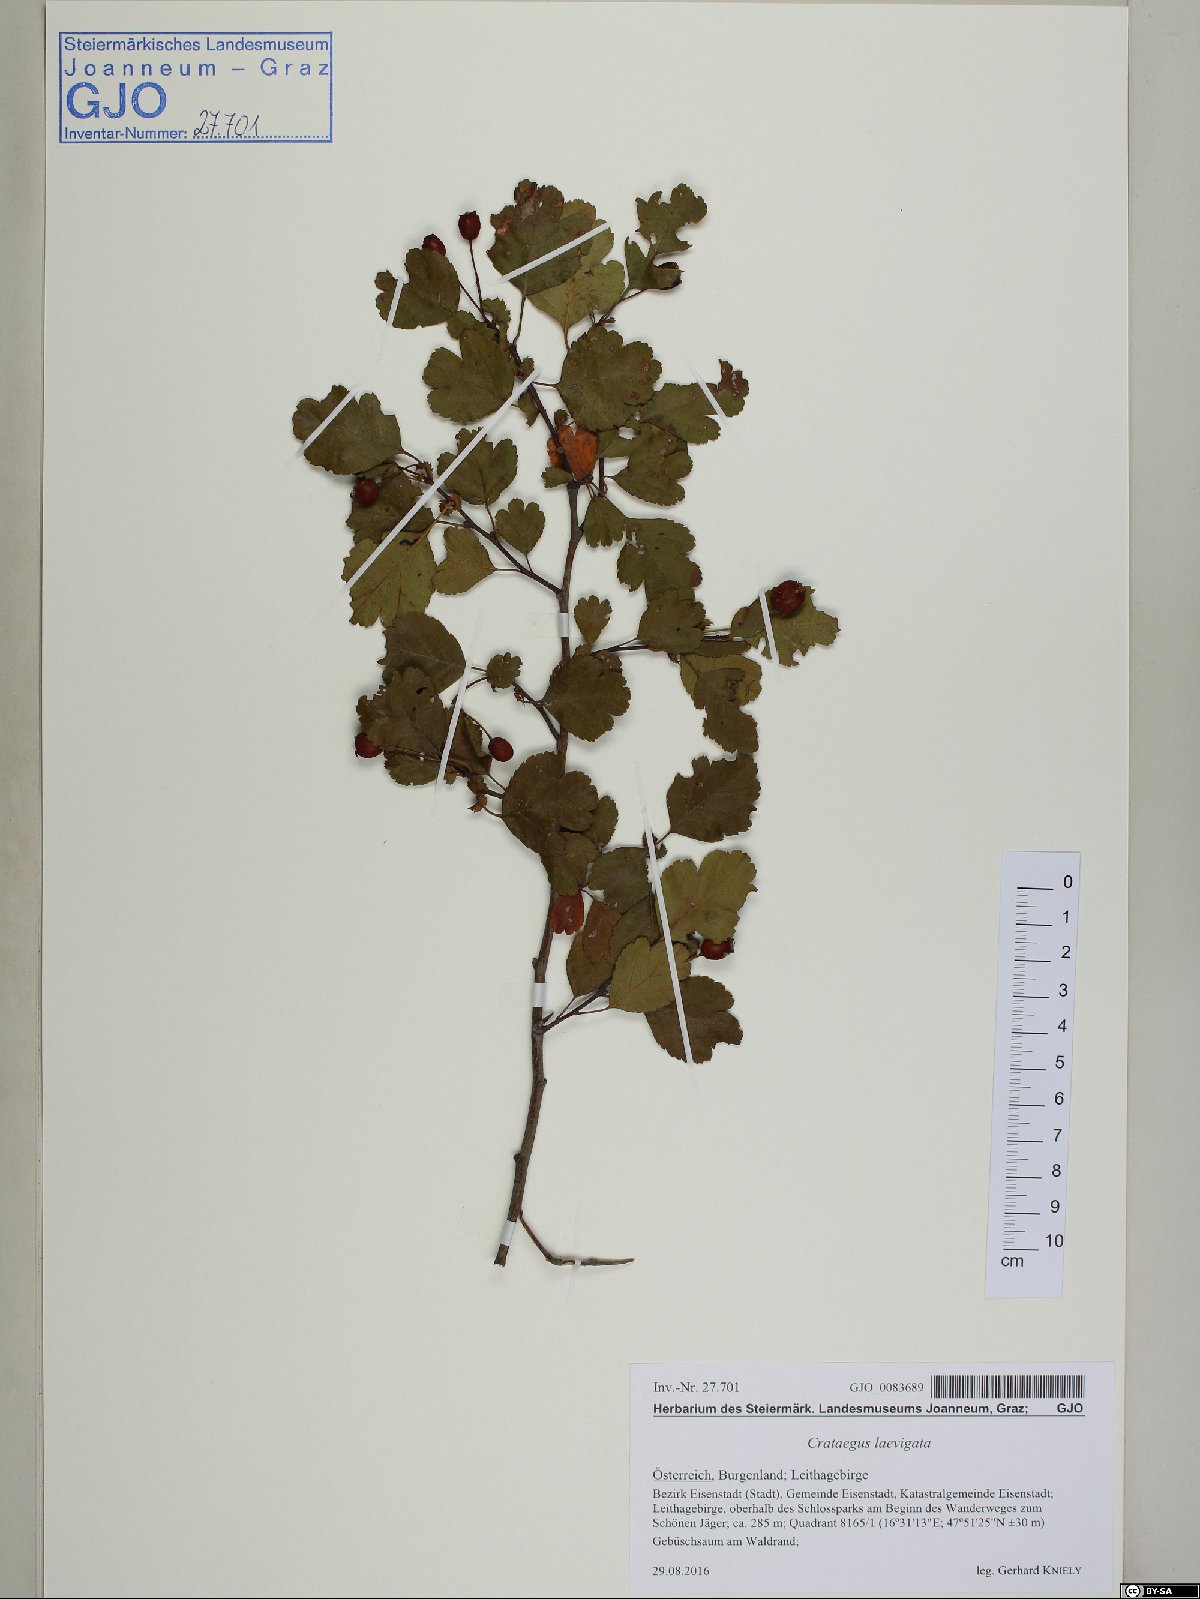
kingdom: Plantae
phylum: Tracheophyta
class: Magnoliopsida
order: Rosales
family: Rosaceae
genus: Crataegus
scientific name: Crataegus laevigata
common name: Midland hawthorn
